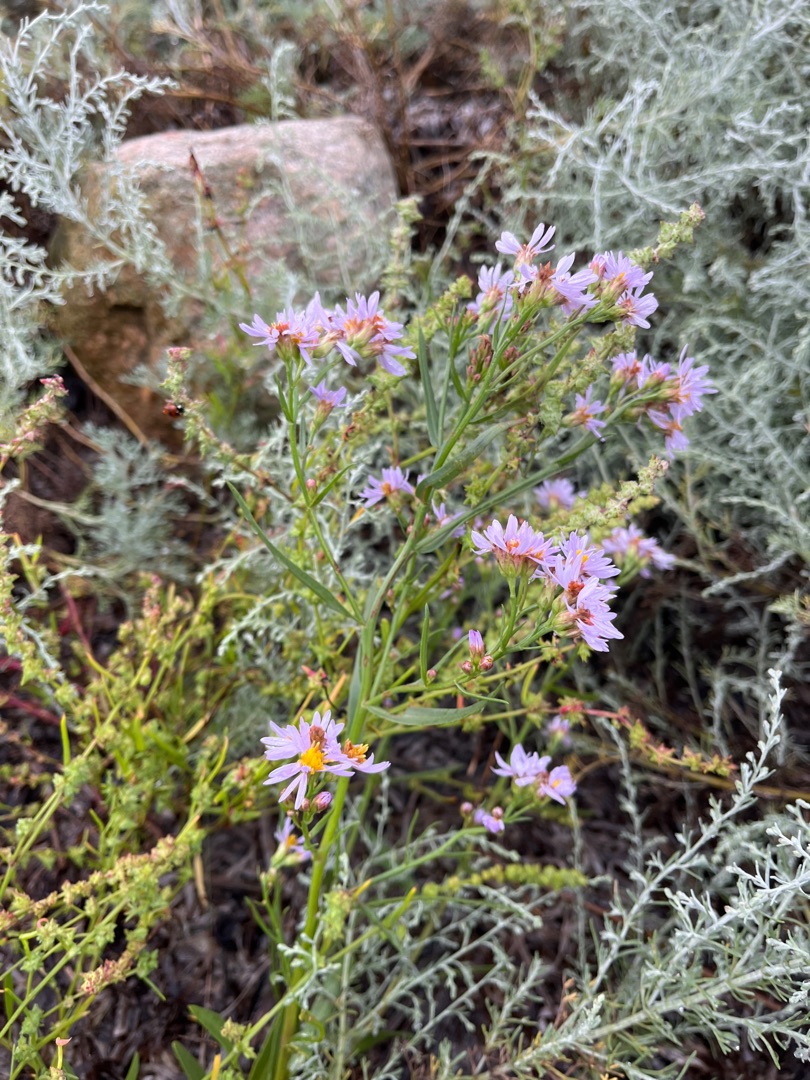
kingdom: Plantae
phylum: Tracheophyta
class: Magnoliopsida
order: Asterales
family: Asteraceae
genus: Tripolium
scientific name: Tripolium pannonicum
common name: Strandasters
